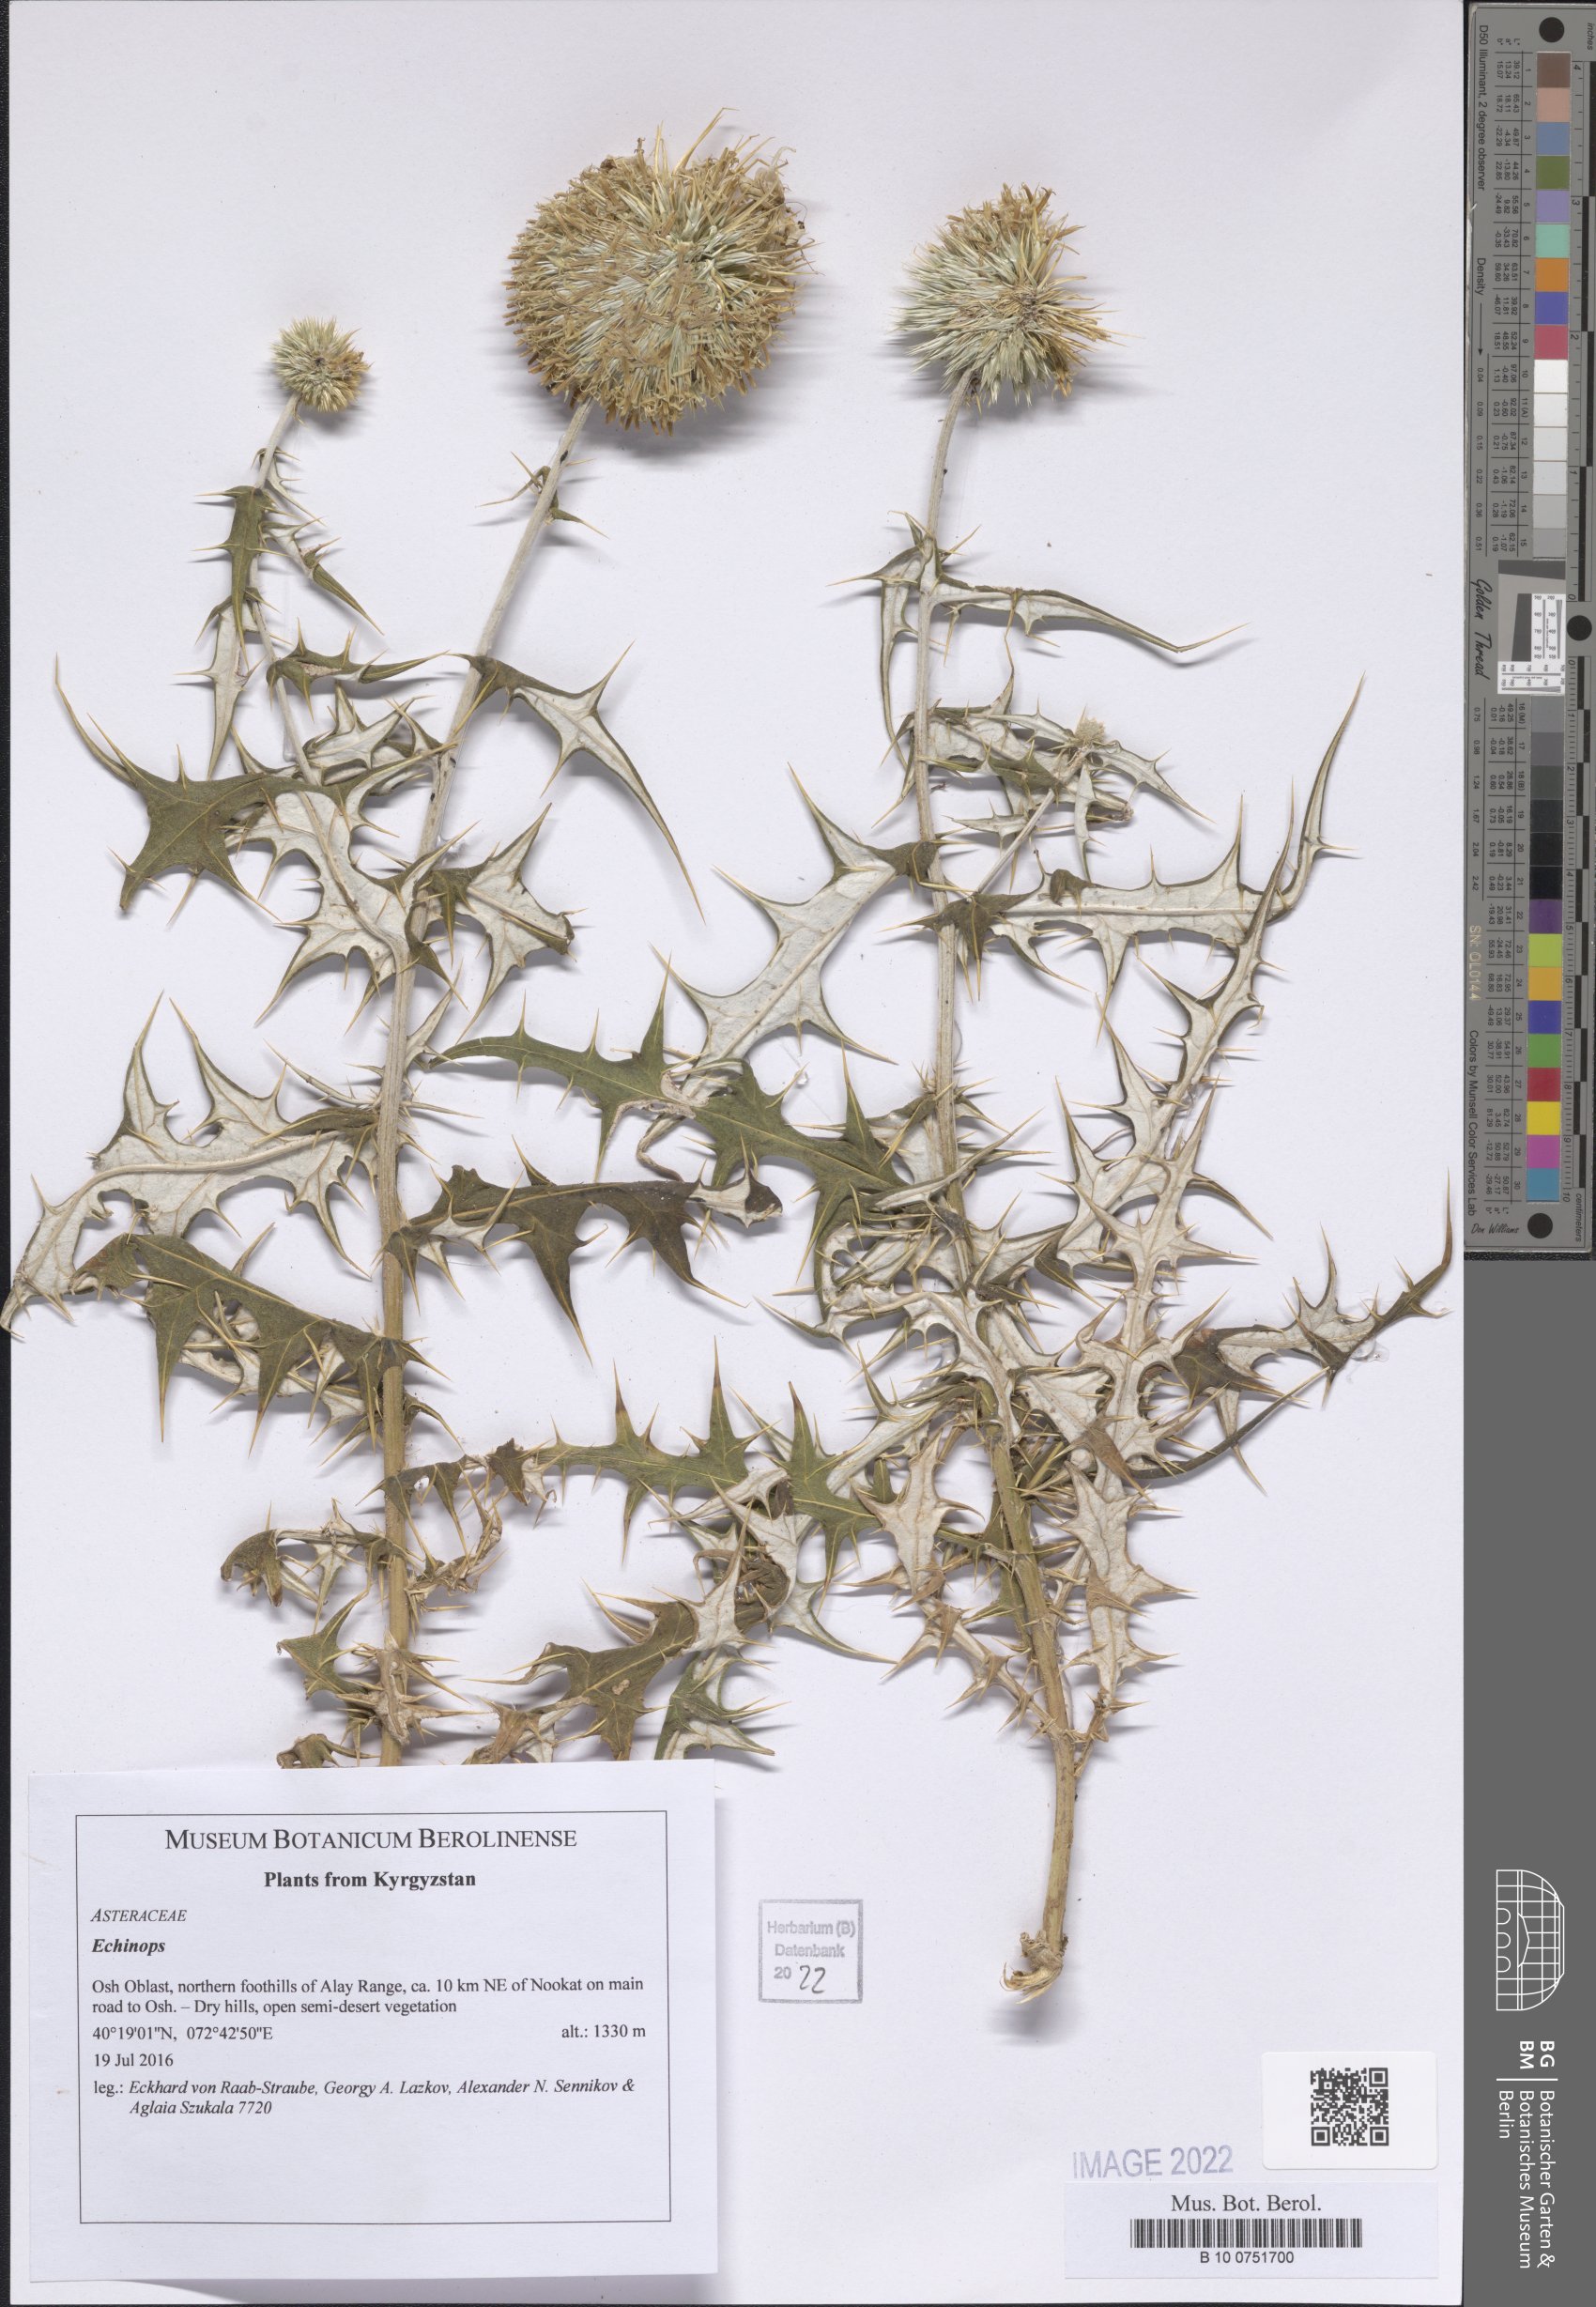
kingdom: Plantae
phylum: Tracheophyta
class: Magnoliopsida
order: Asterales
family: Asteraceae
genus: Echinops
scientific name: Echinops
